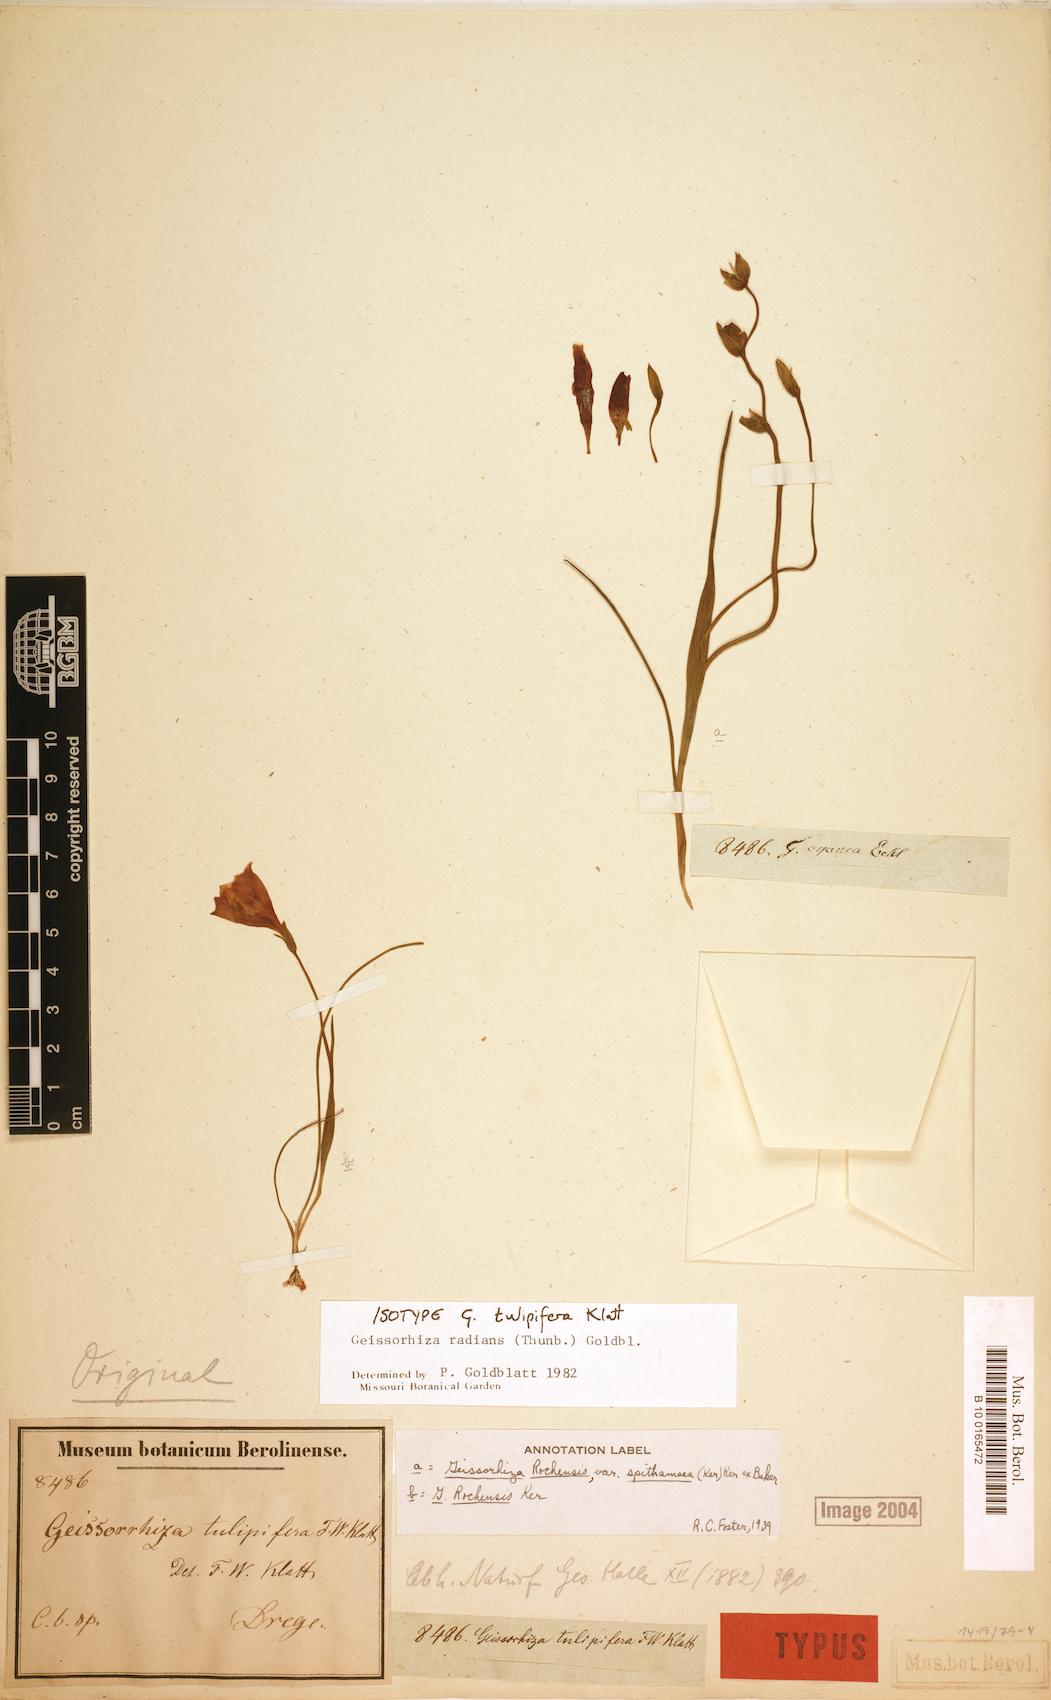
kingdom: Plantae
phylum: Tracheophyta
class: Liliopsida
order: Asparagales
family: Iridaceae
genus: Geissorhiza
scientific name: Geissorhiza radians
